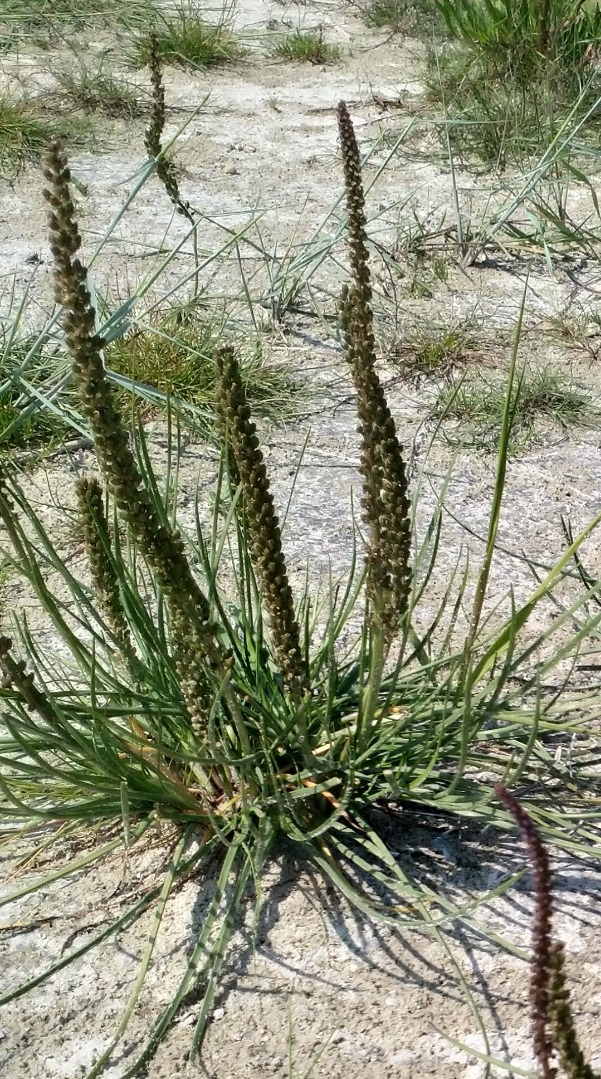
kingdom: Plantae
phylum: Tracheophyta
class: Magnoliopsida
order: Lamiales
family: Plantaginaceae
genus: Plantago
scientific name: Plantago maritima
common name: Strand-vejbred
